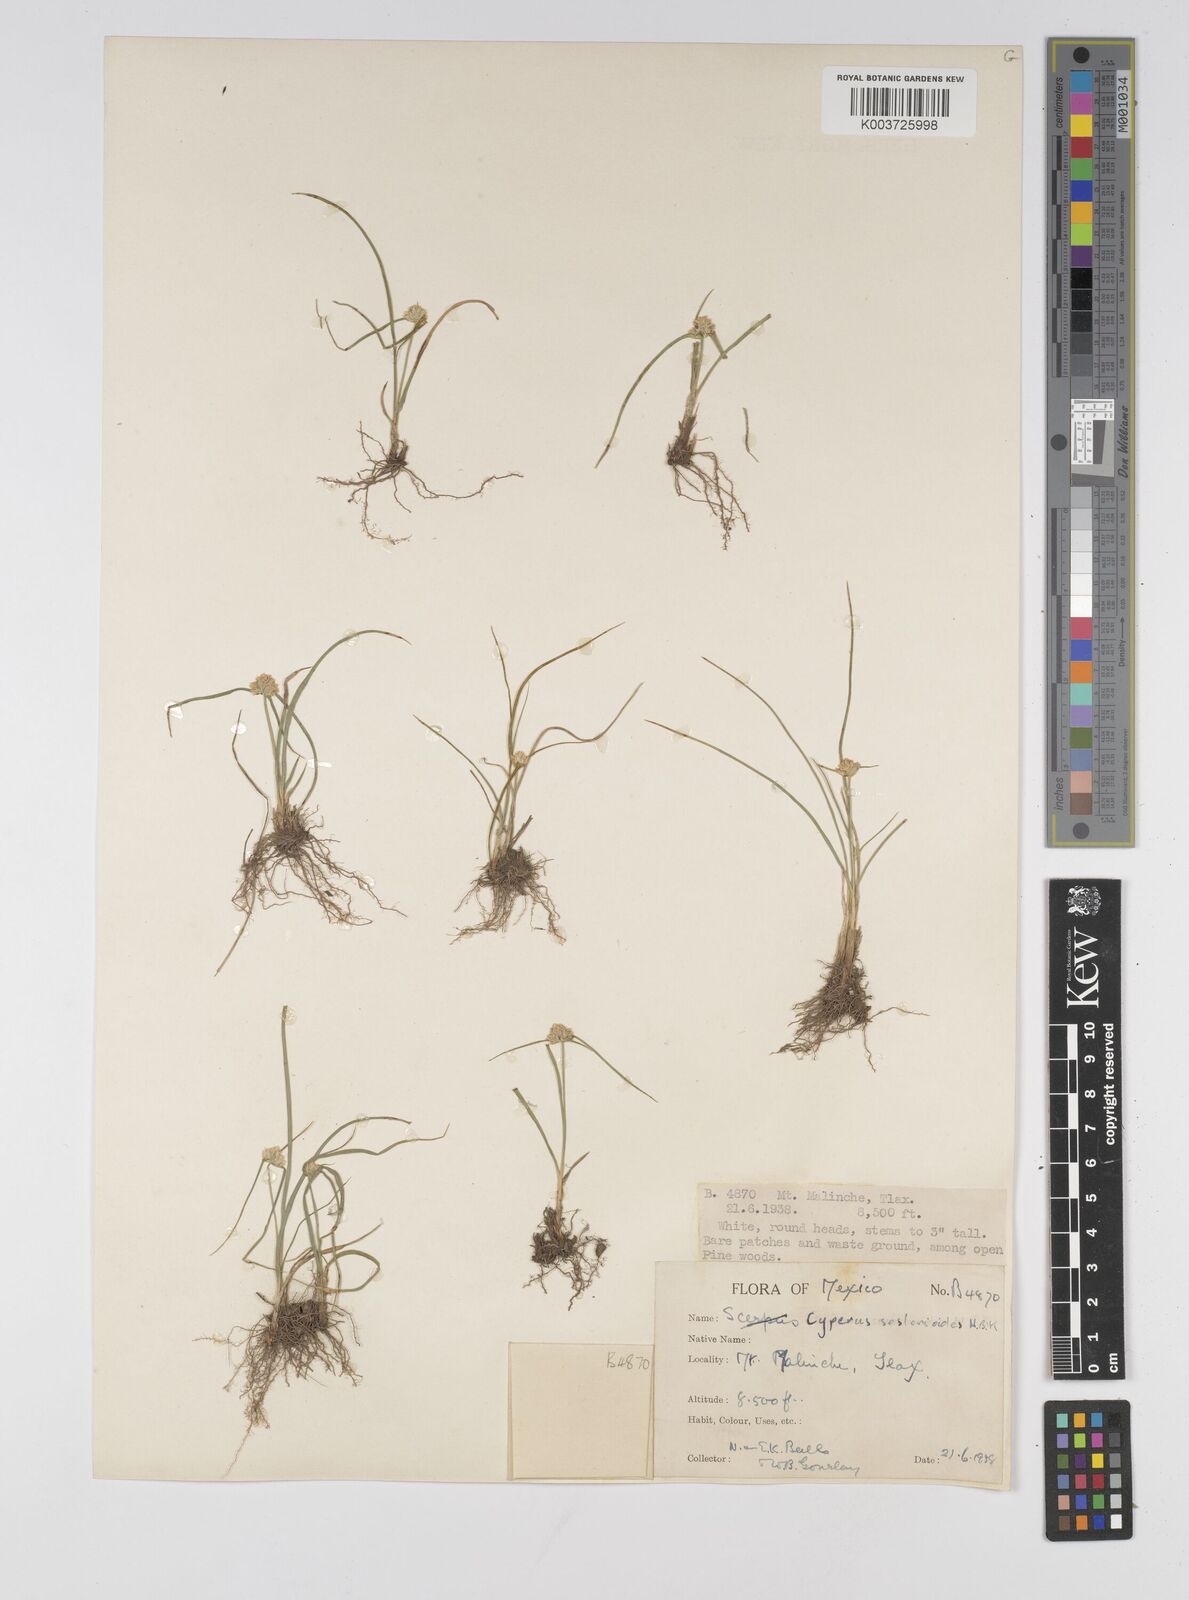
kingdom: Plantae
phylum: Tracheophyta
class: Liliopsida
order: Poales
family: Cyperaceae
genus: Cyperus
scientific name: Cyperus seslerioides
